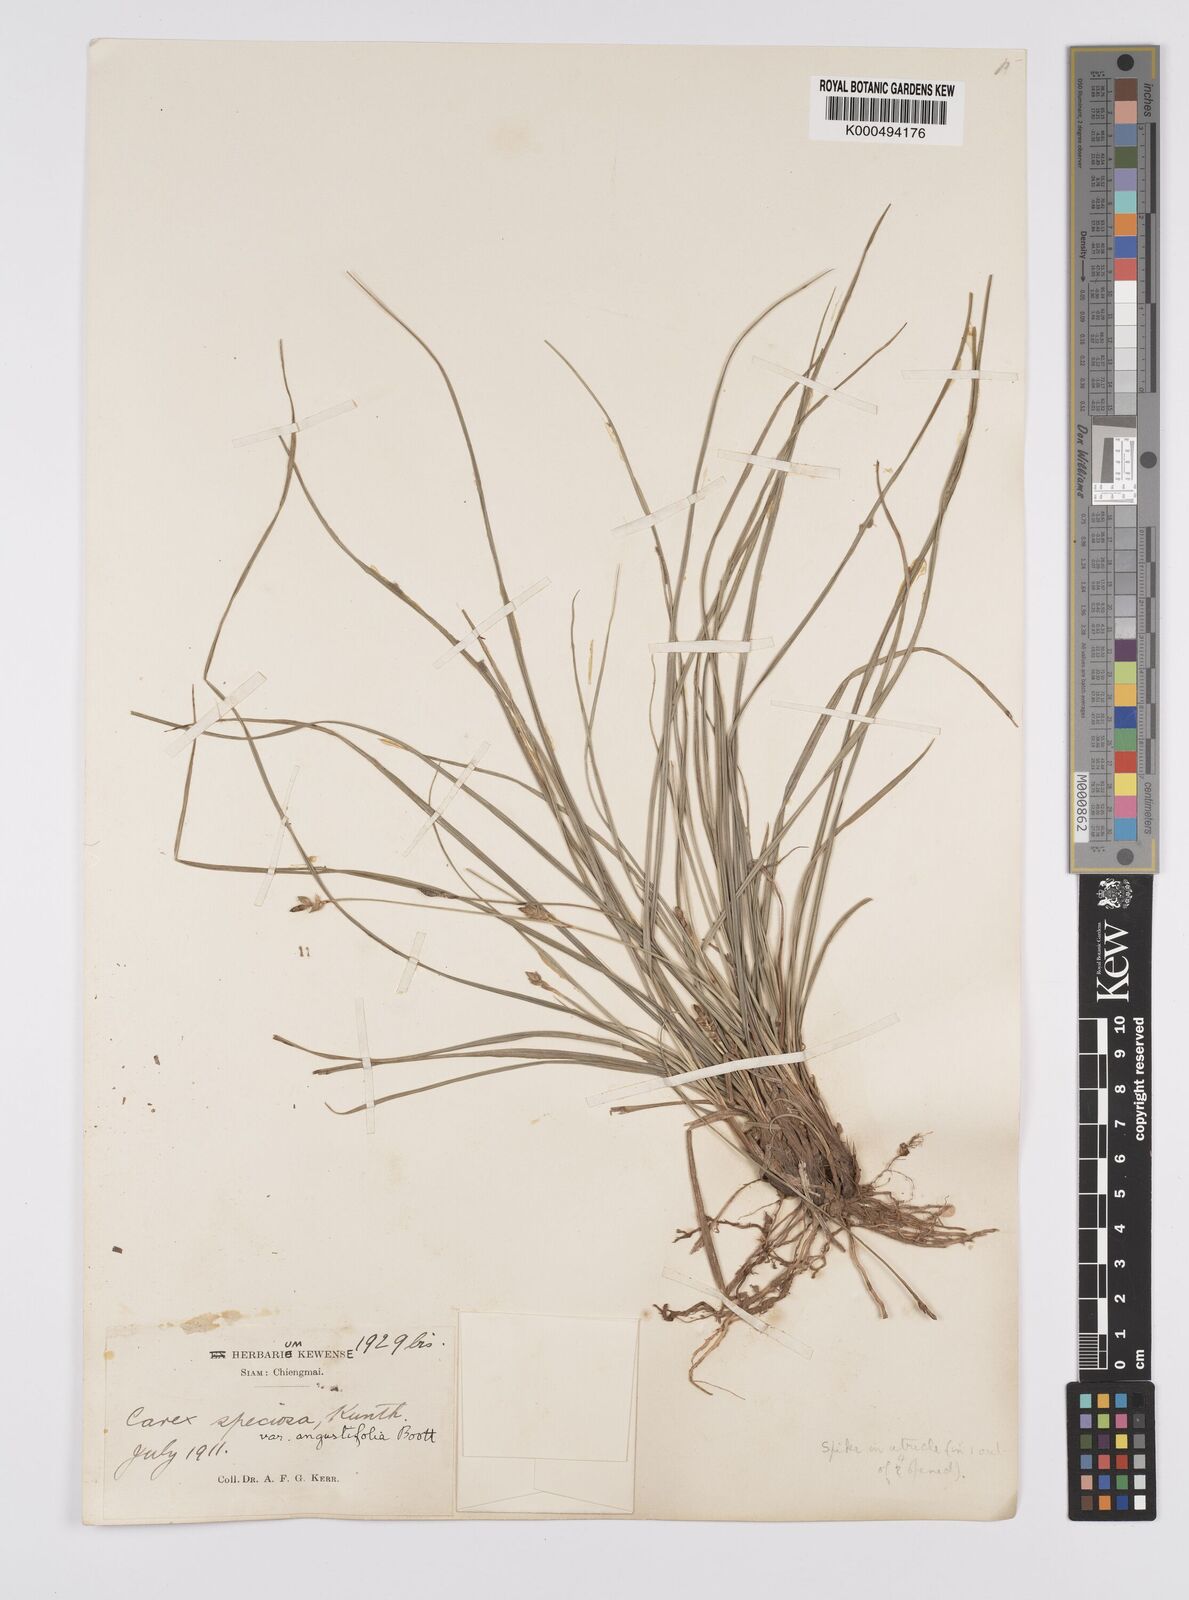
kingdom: Plantae
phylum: Tracheophyta
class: Liliopsida
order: Poales
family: Cyperaceae
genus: Carex
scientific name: Carex speciosa
